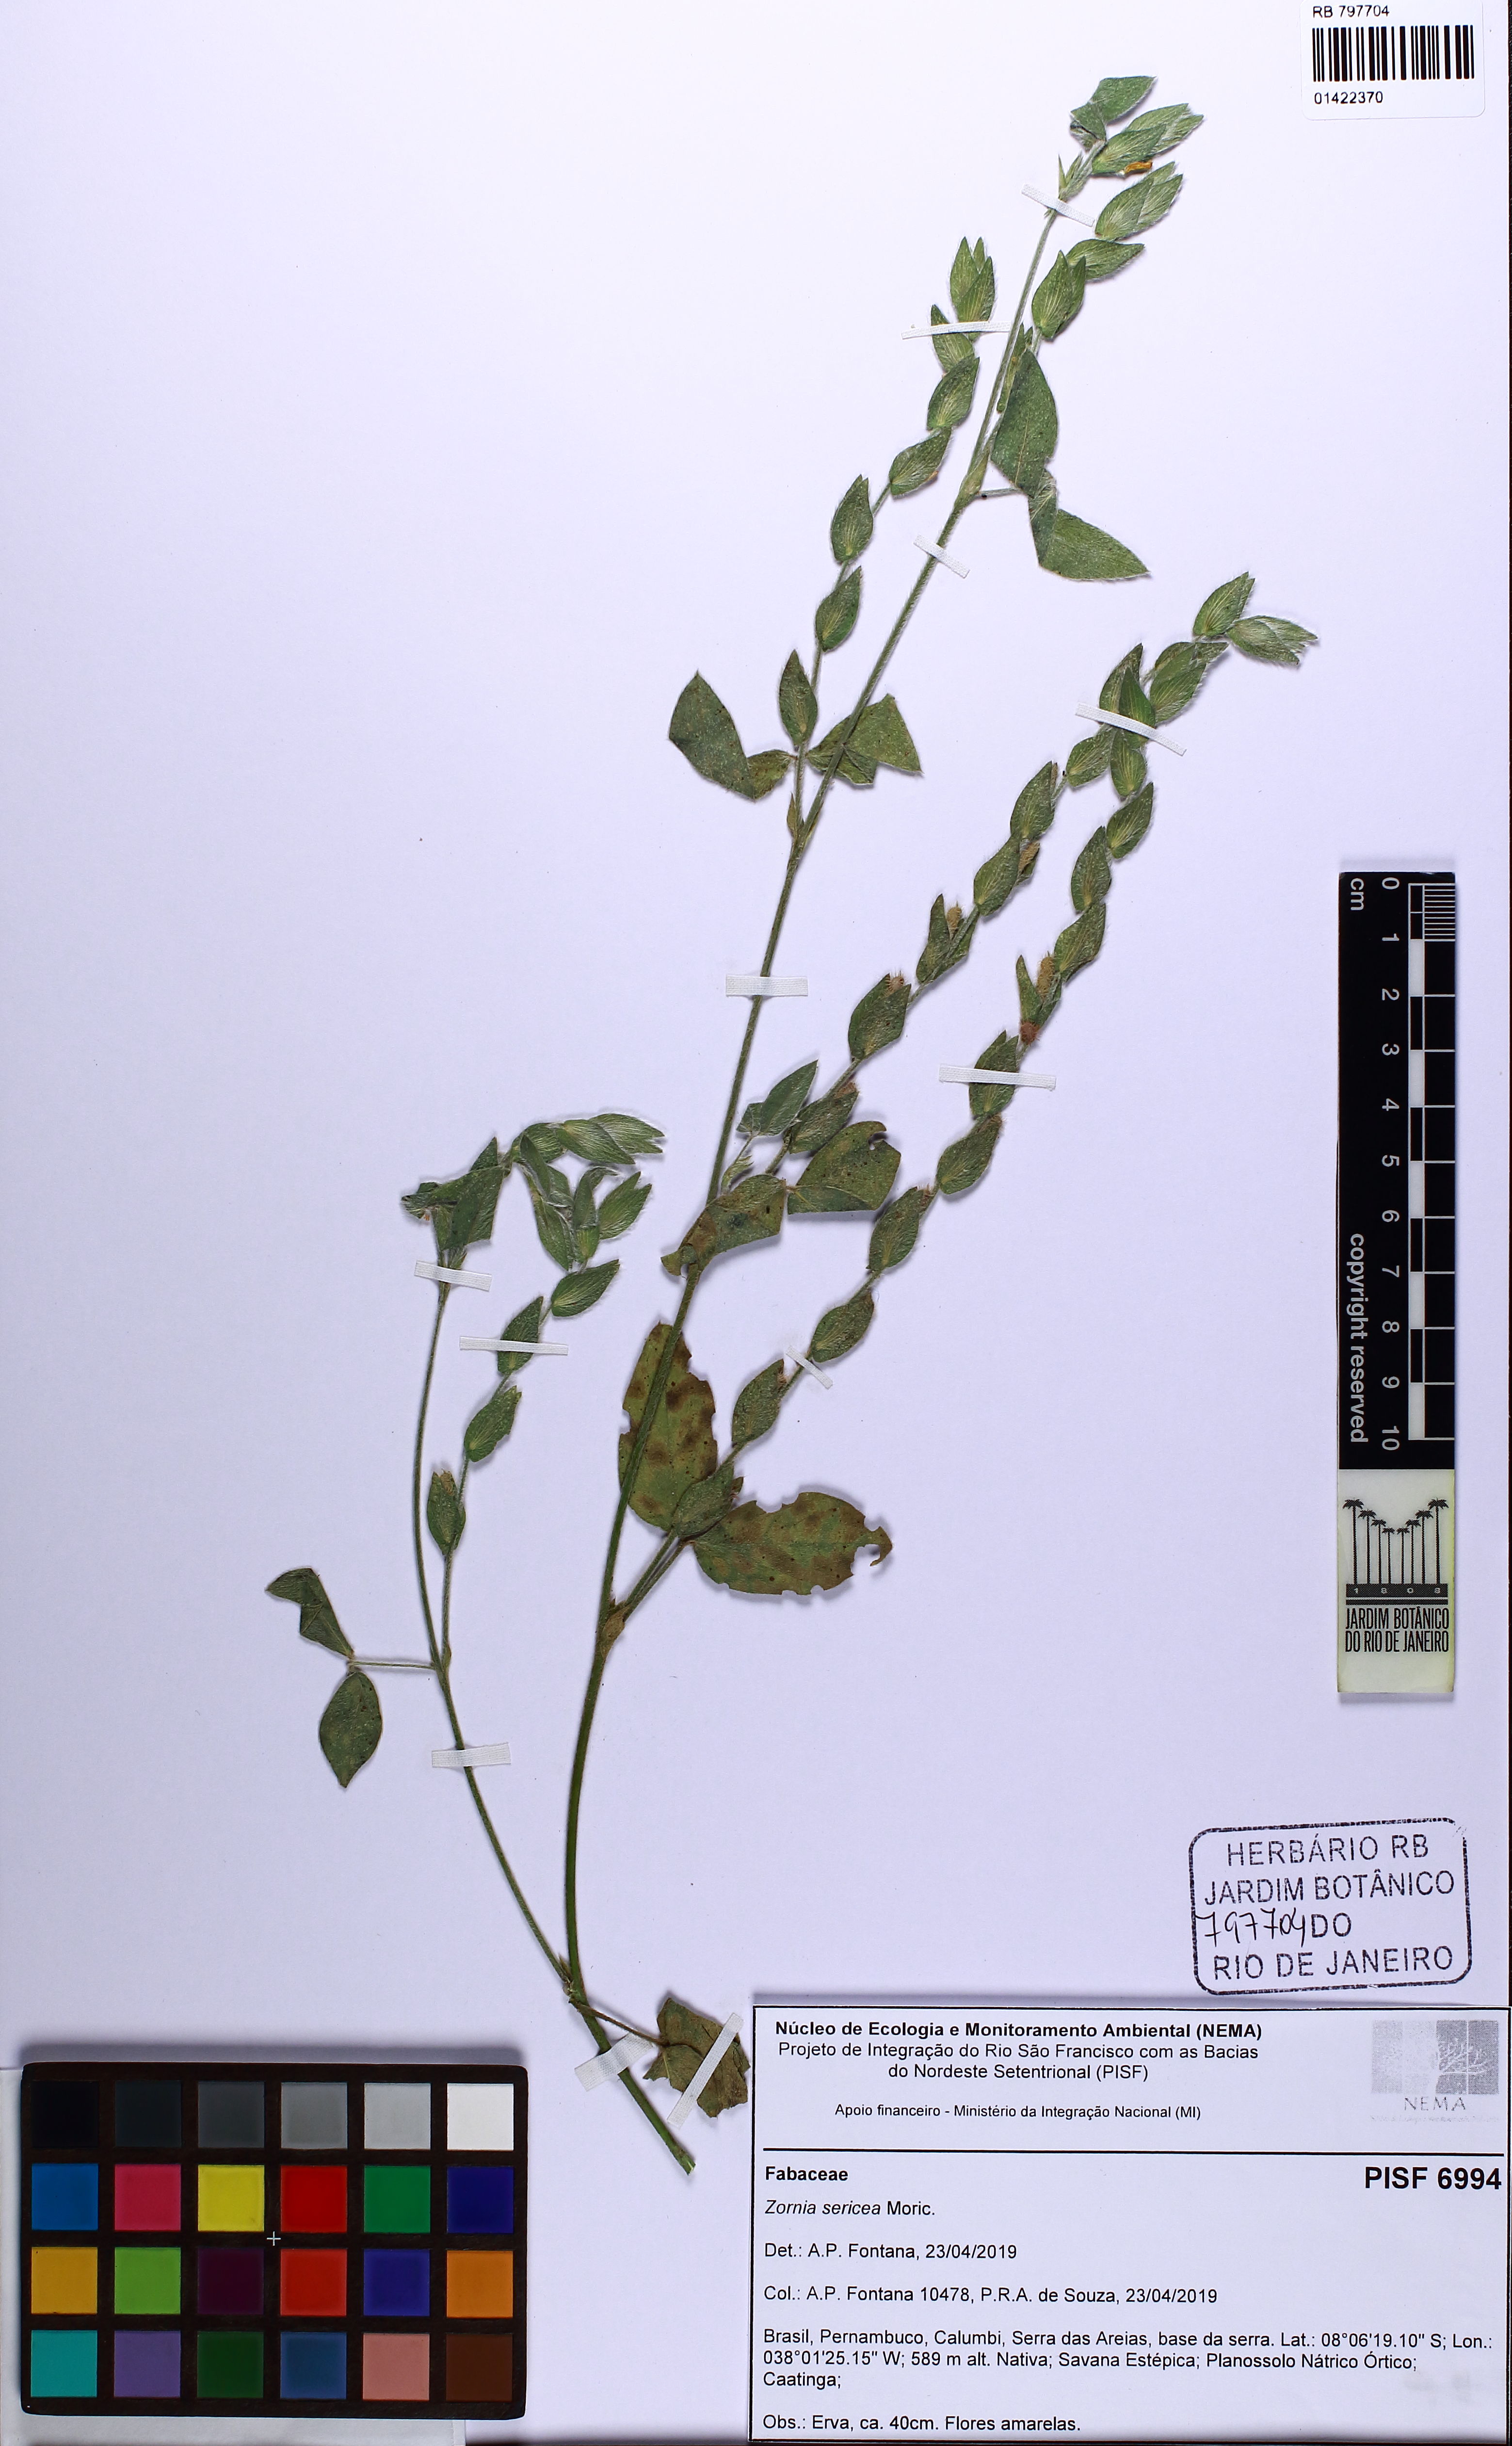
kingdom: Plantae
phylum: Tracheophyta
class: Magnoliopsida
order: Fabales
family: Fabaceae
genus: Zornia
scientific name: Zornia sericea
